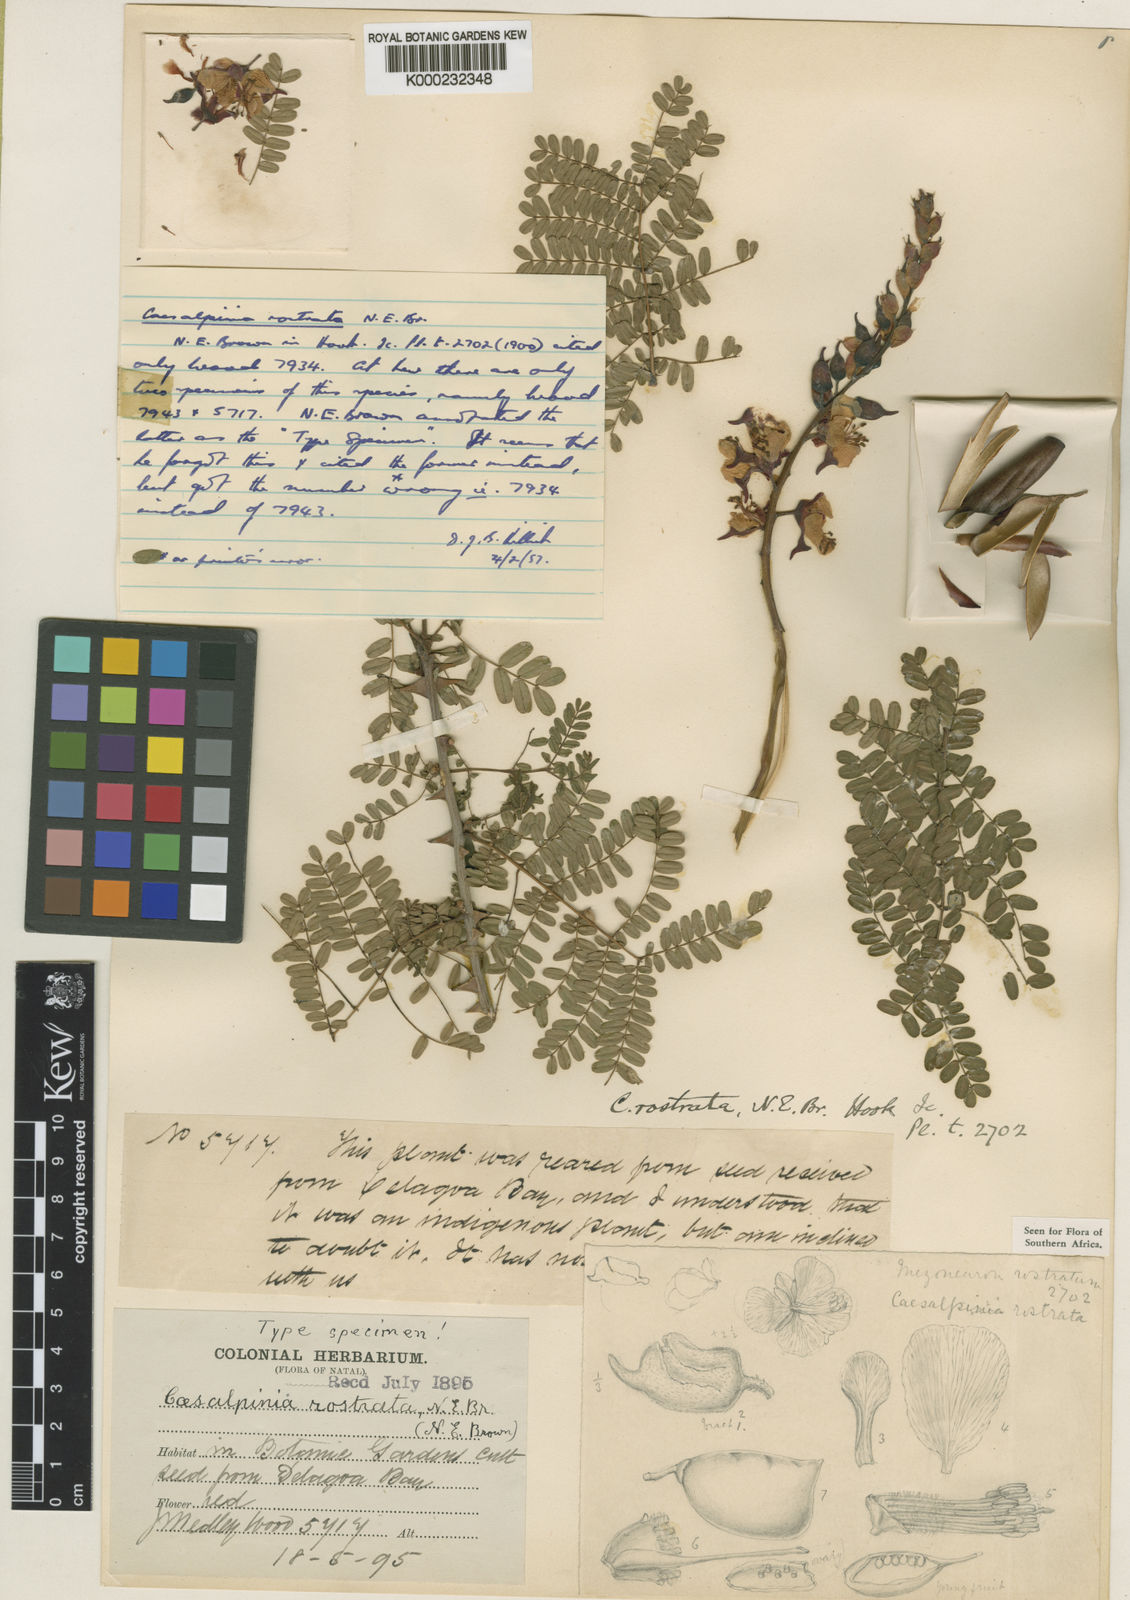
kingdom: Plantae
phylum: Tracheophyta
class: Magnoliopsida
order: Fabales
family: Fabaceae
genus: Gelrebia
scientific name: Gelrebia rostrata
